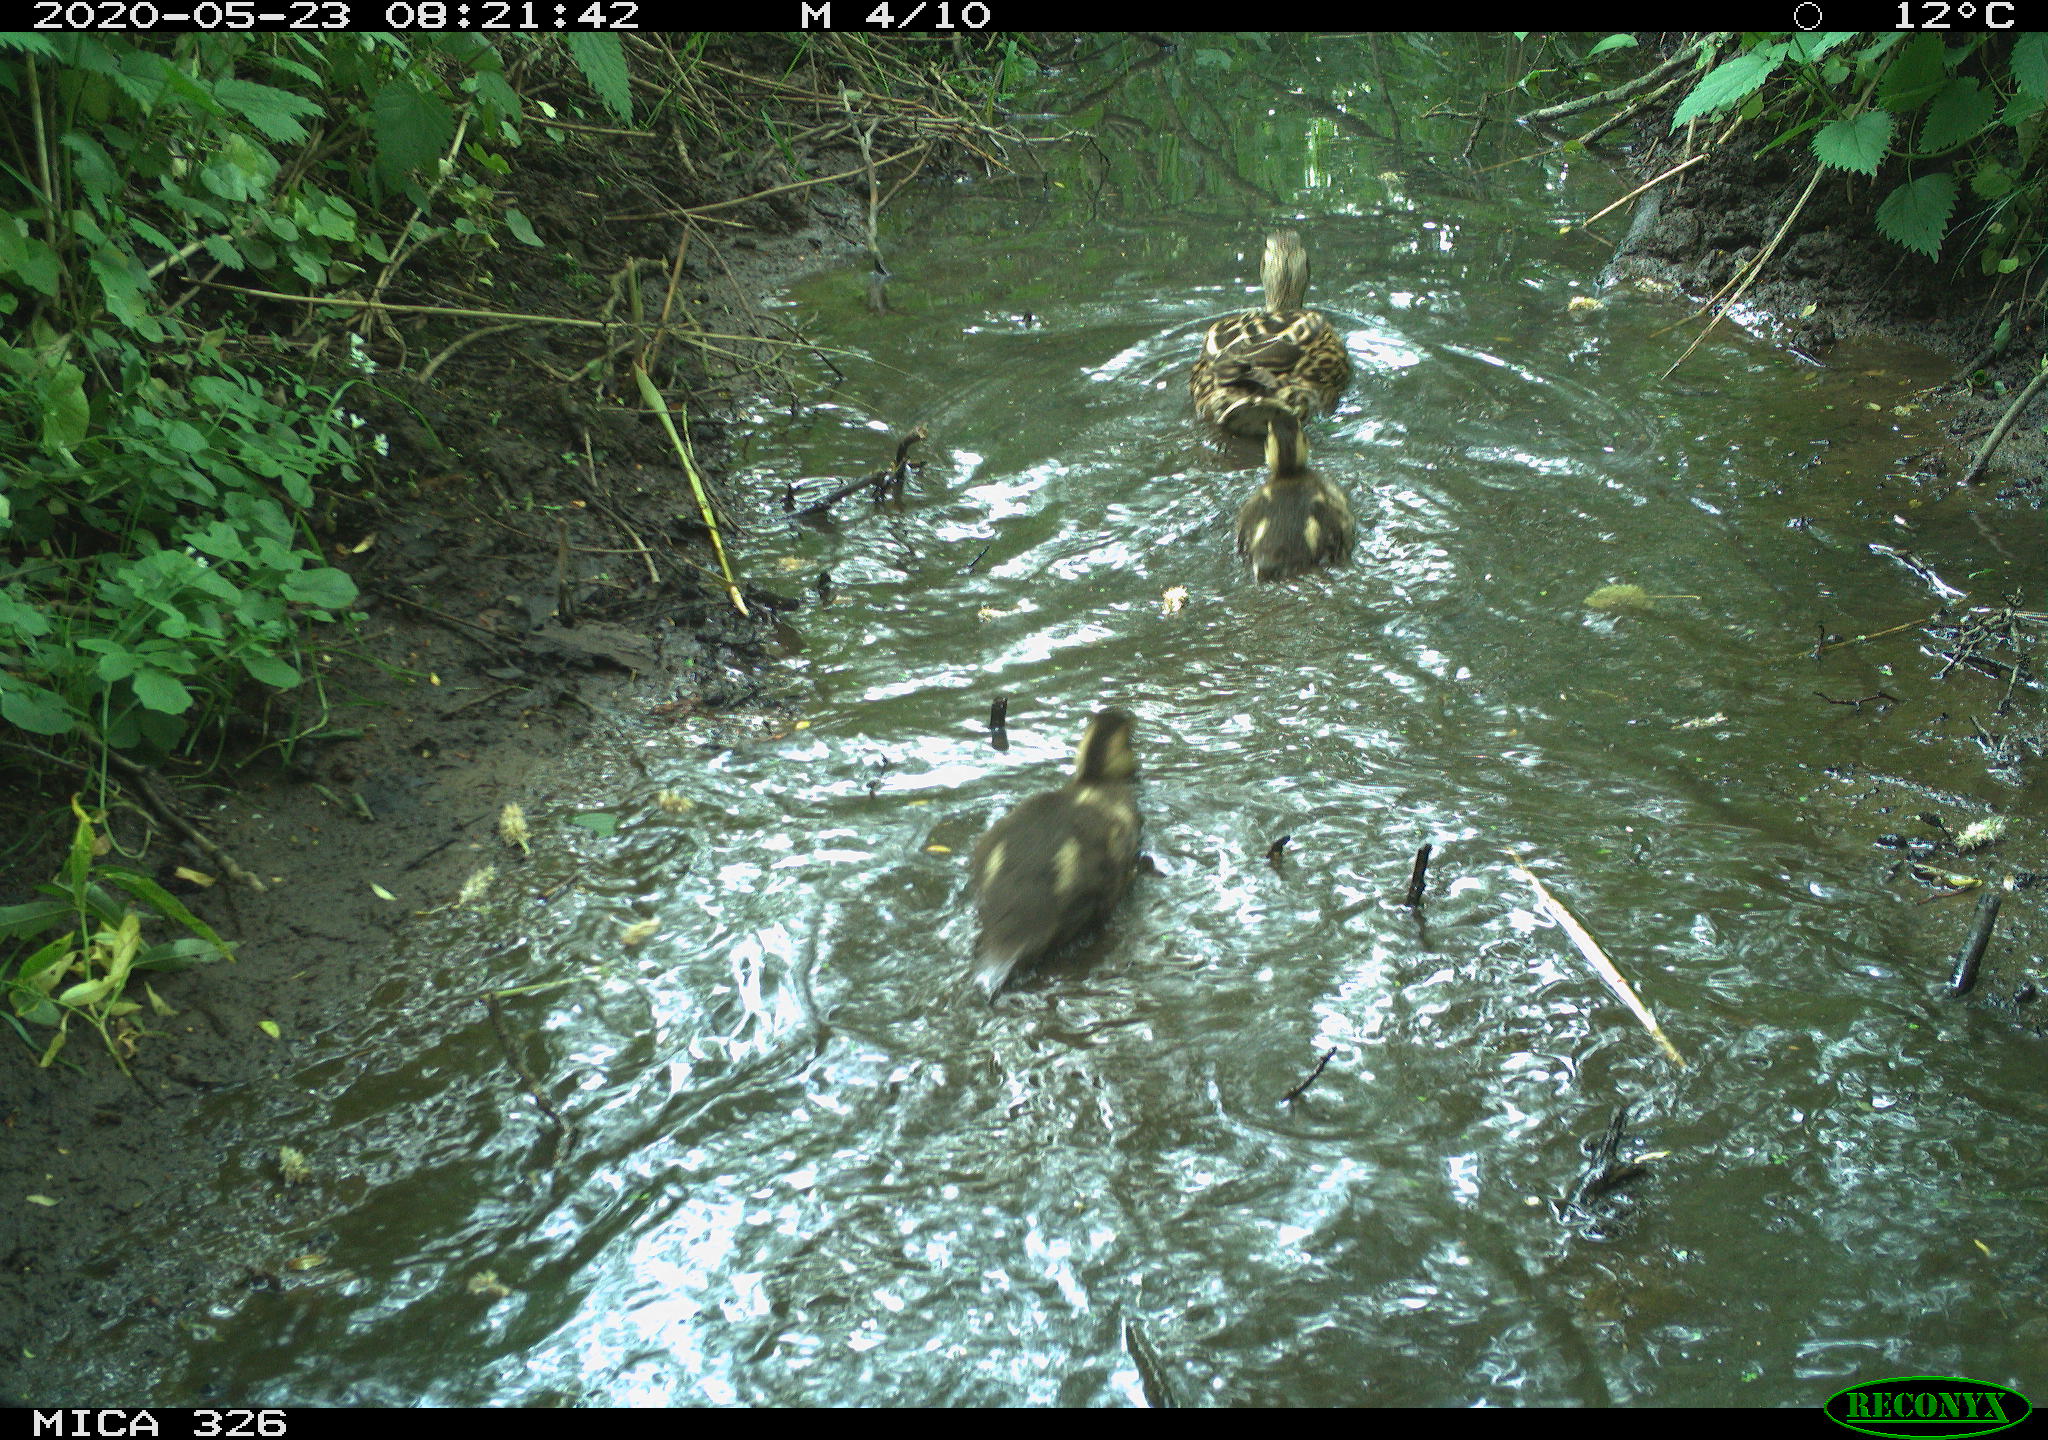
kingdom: Animalia
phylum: Chordata
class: Aves
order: Anseriformes
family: Anatidae
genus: Anas
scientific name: Anas platyrhynchos
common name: Mallard
